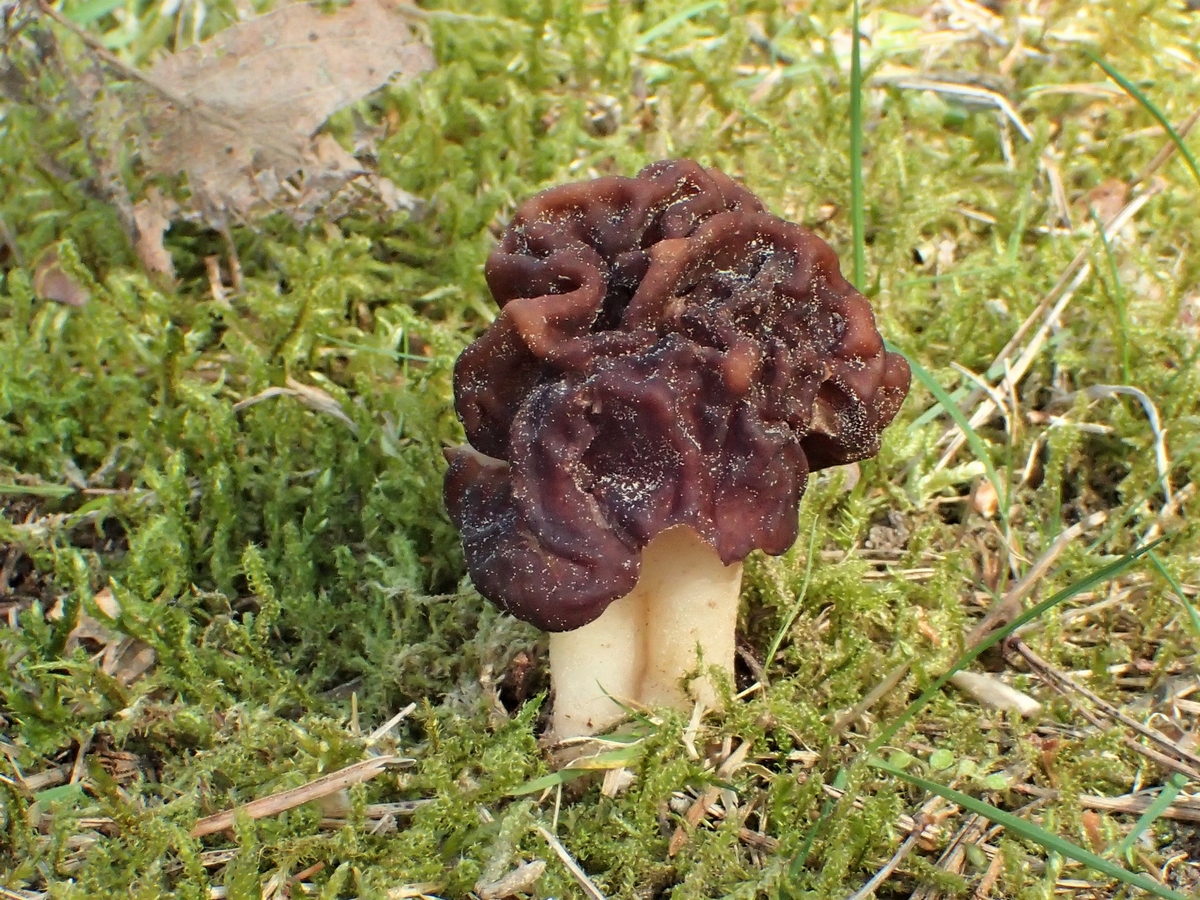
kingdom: Fungi
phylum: Ascomycota
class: Pezizomycetes
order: Pezizales
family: Discinaceae
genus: Gyromitra
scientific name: Gyromitra esculenta
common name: ægte stenmorkel
